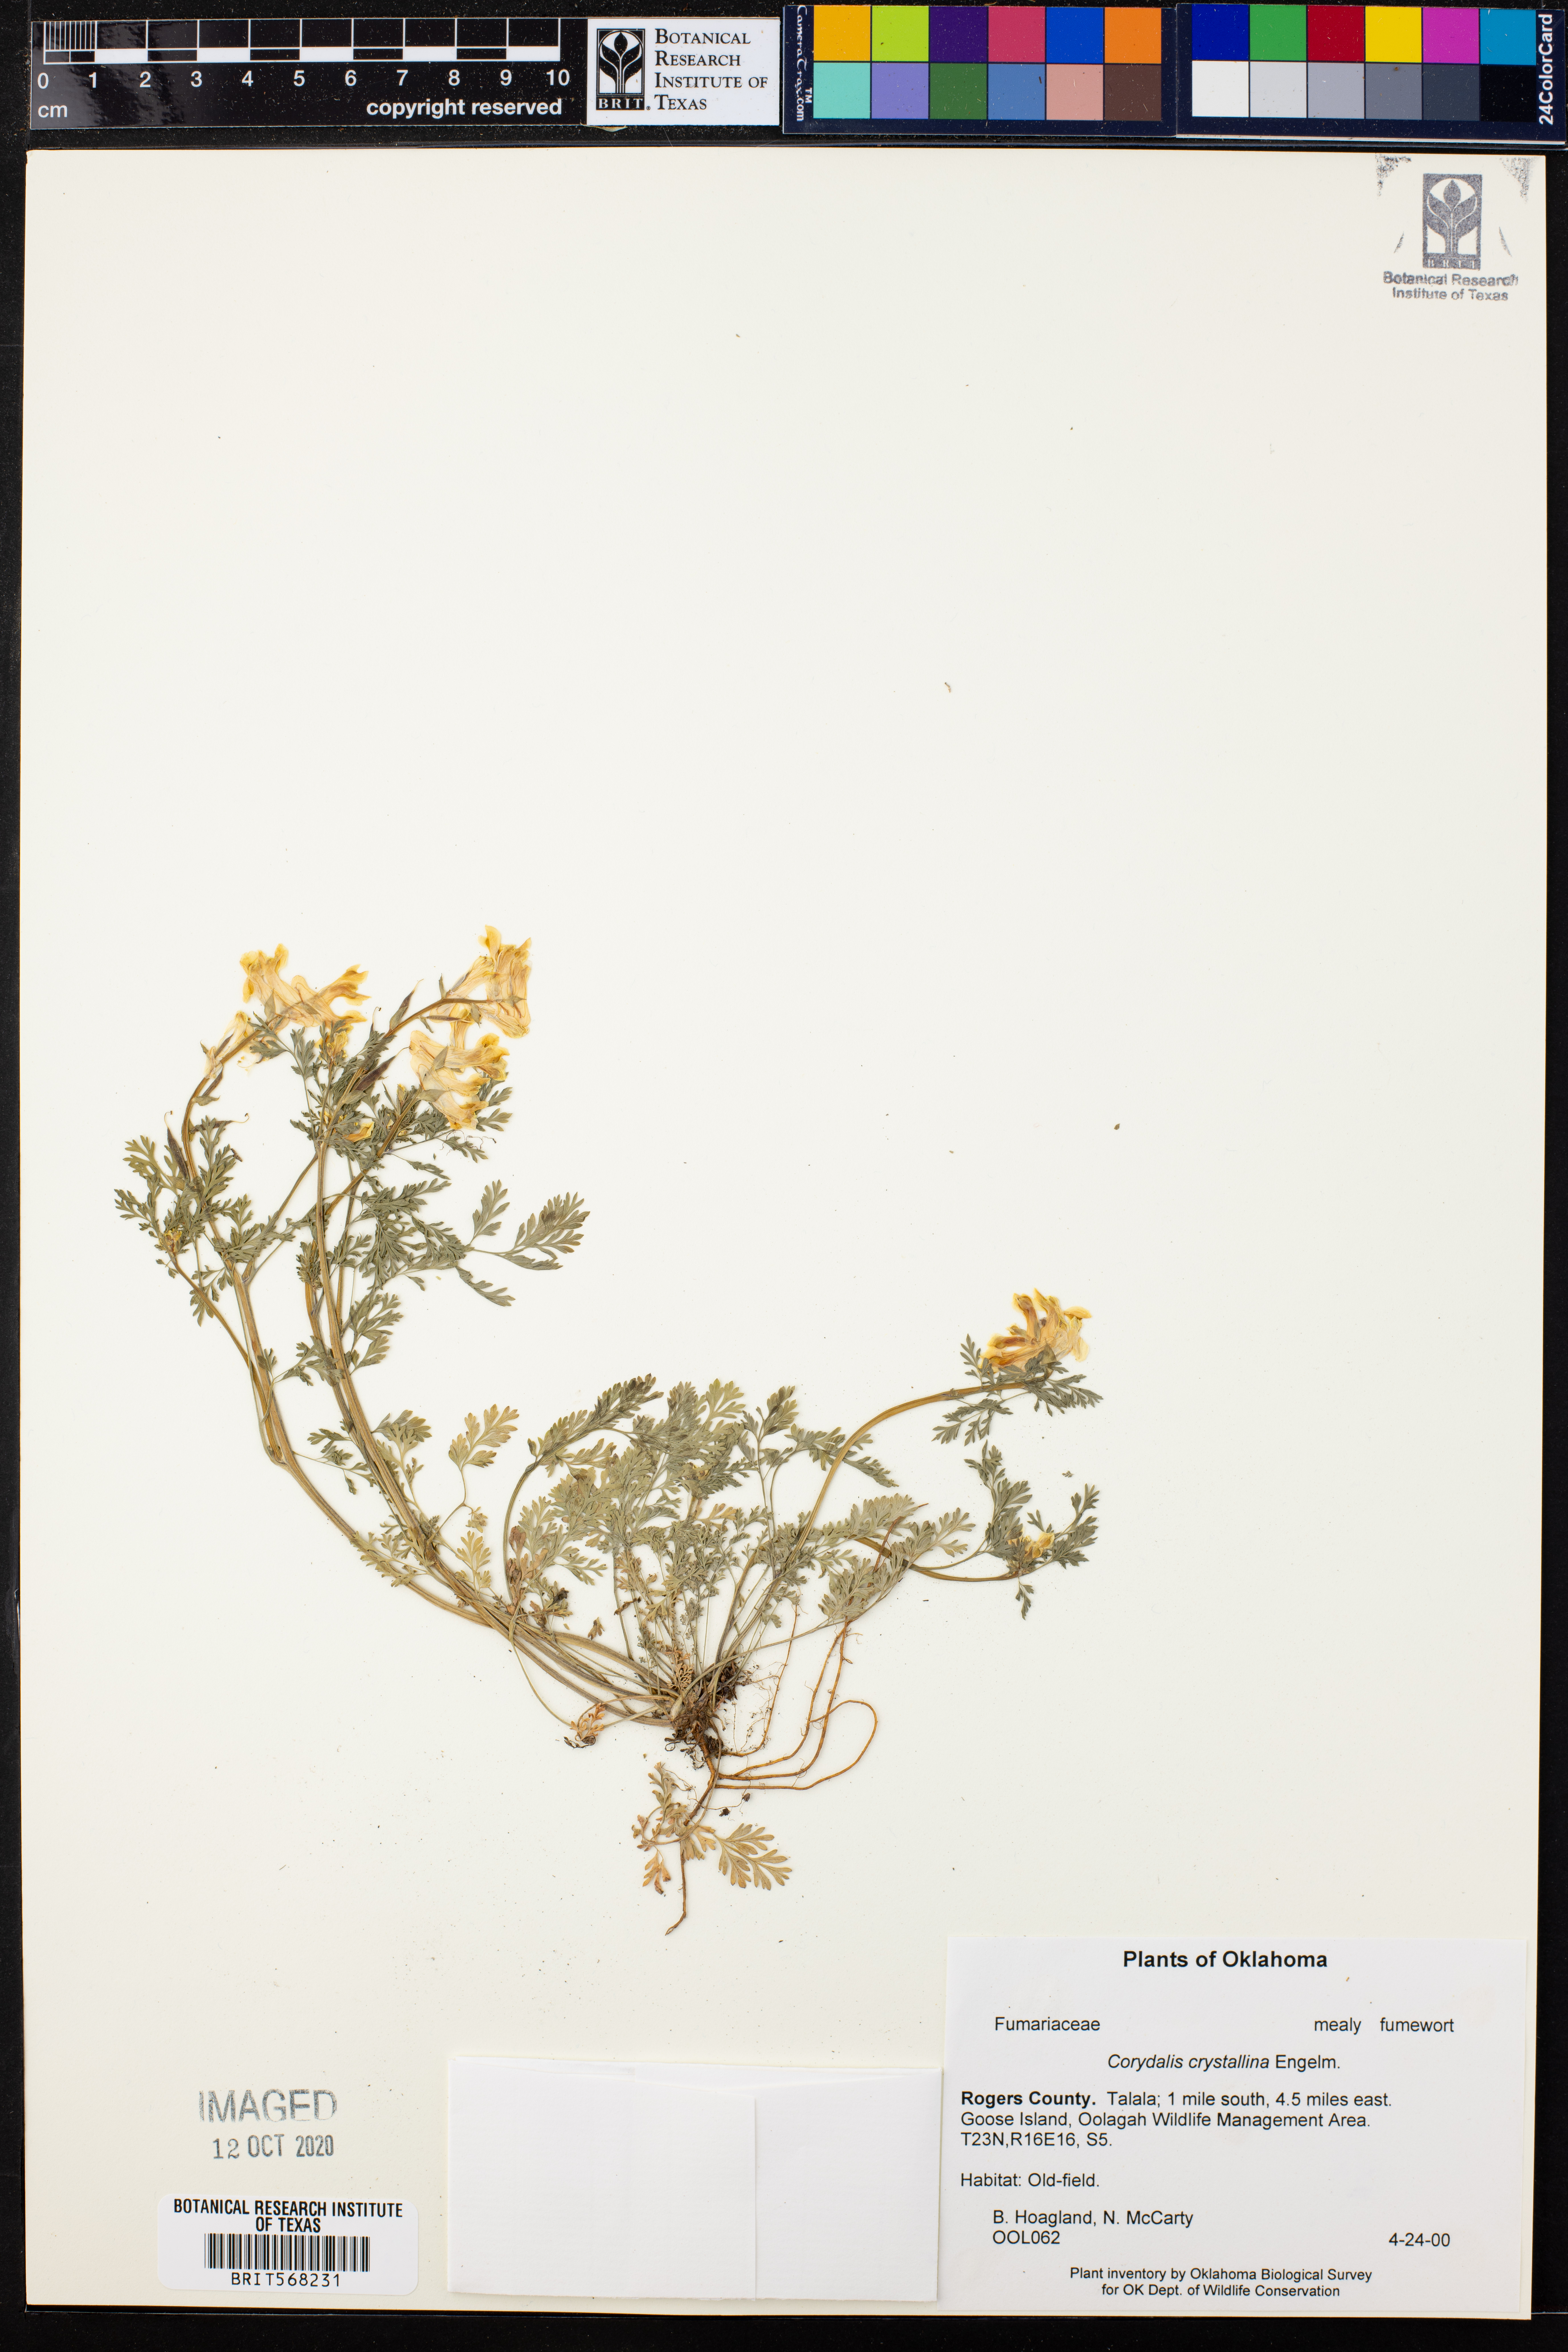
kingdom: Plantae
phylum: Tracheophyta
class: Magnoliopsida
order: Ranunculales
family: Papaveraceae
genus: Corydalis
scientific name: Corydalis crystallina
